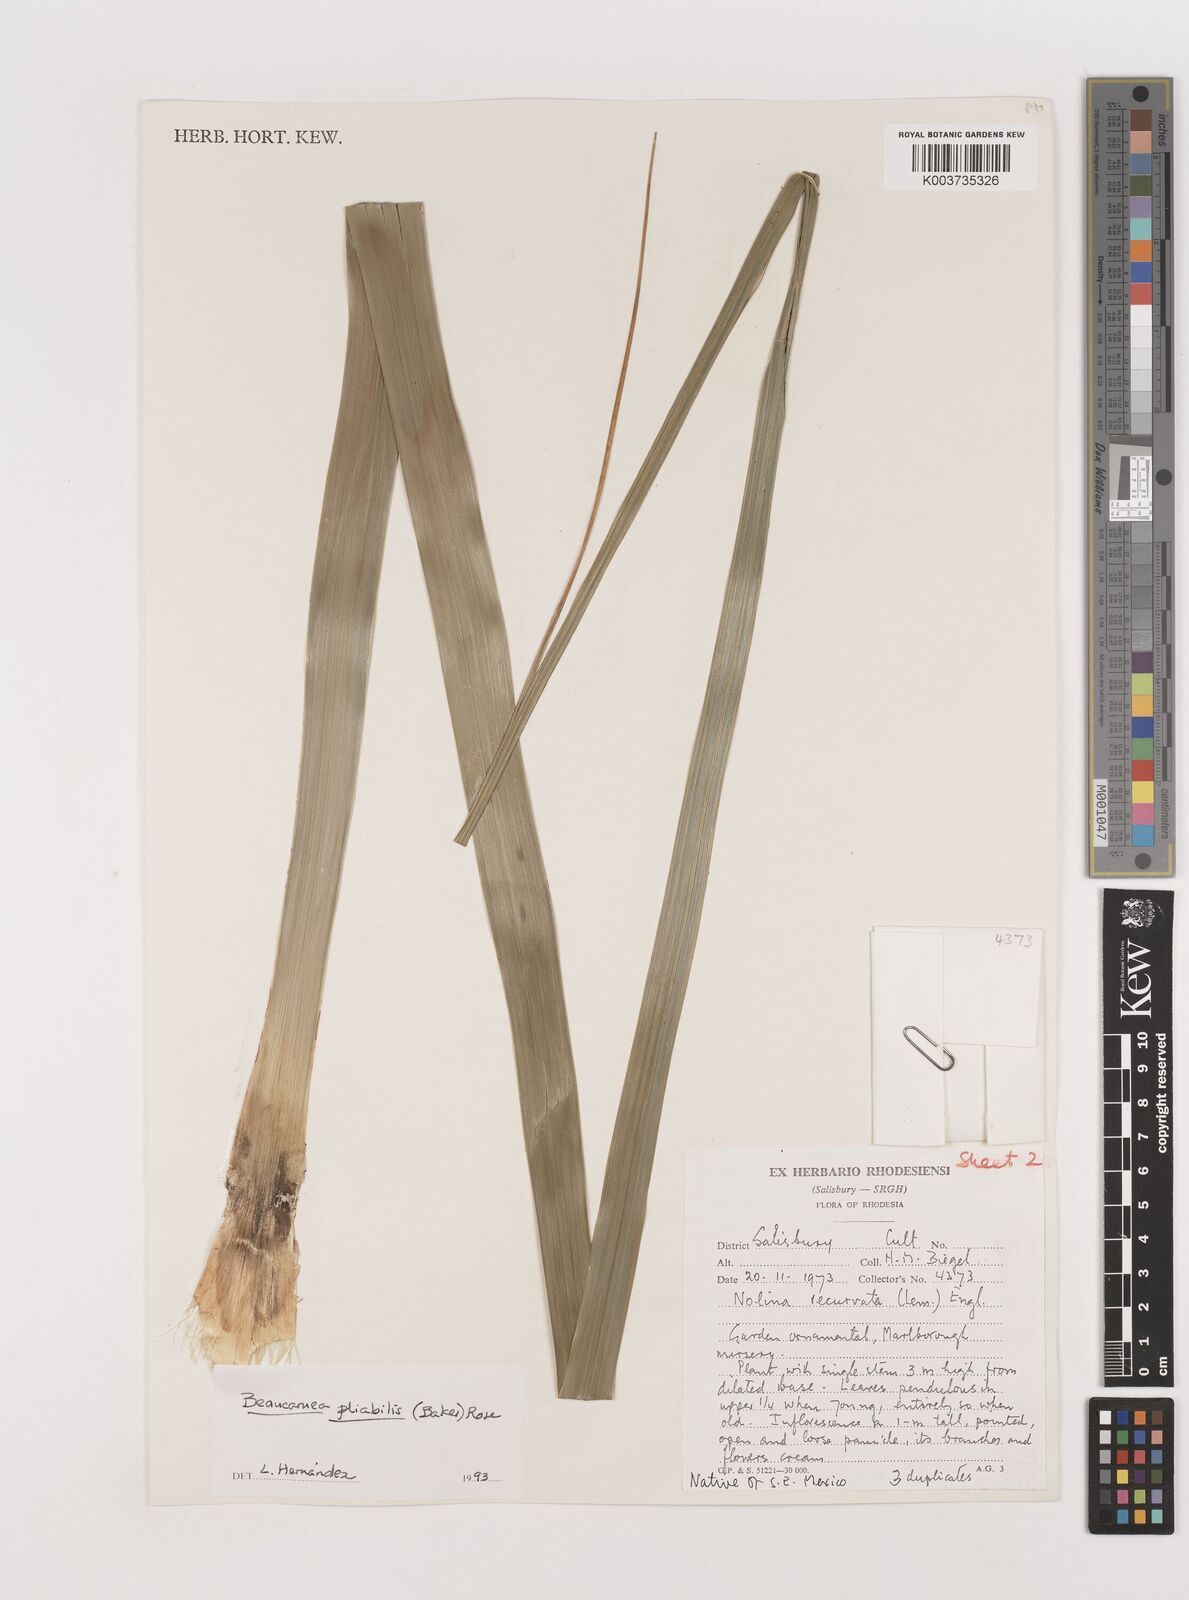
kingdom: Plantae
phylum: Tracheophyta
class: Liliopsida
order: Asparagales
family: Asparagaceae
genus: Beaucarnea
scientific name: Beaucarnea pliabilis
